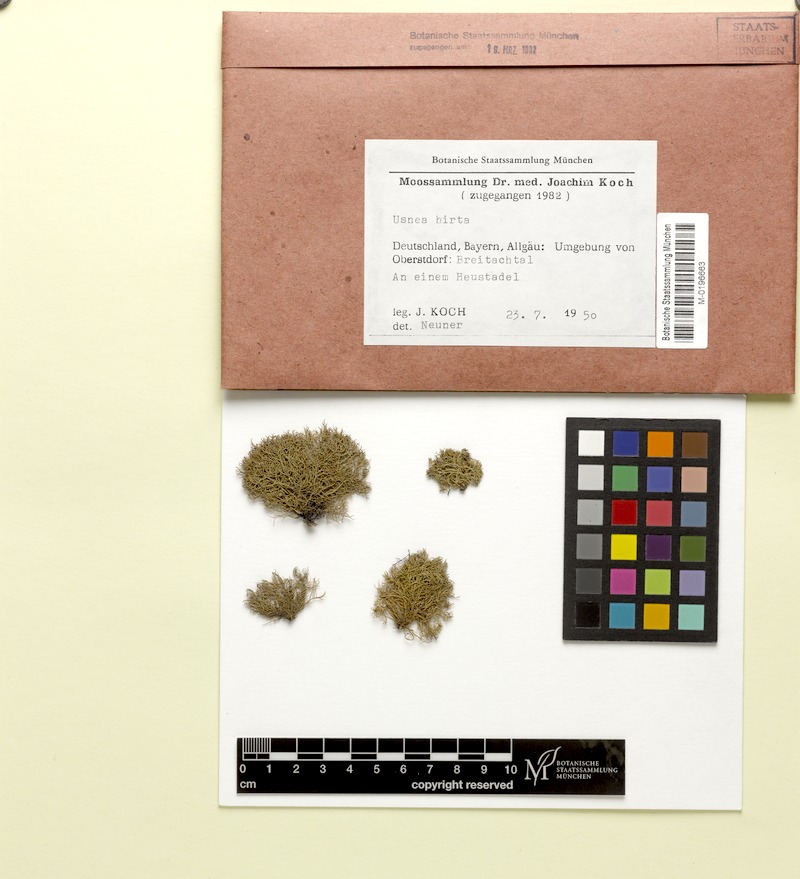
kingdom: Fungi
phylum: Ascomycota
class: Lecanoromycetes
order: Lecanorales
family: Parmeliaceae
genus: Usnea
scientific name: Usnea hirta
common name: Bristly beard lichen
